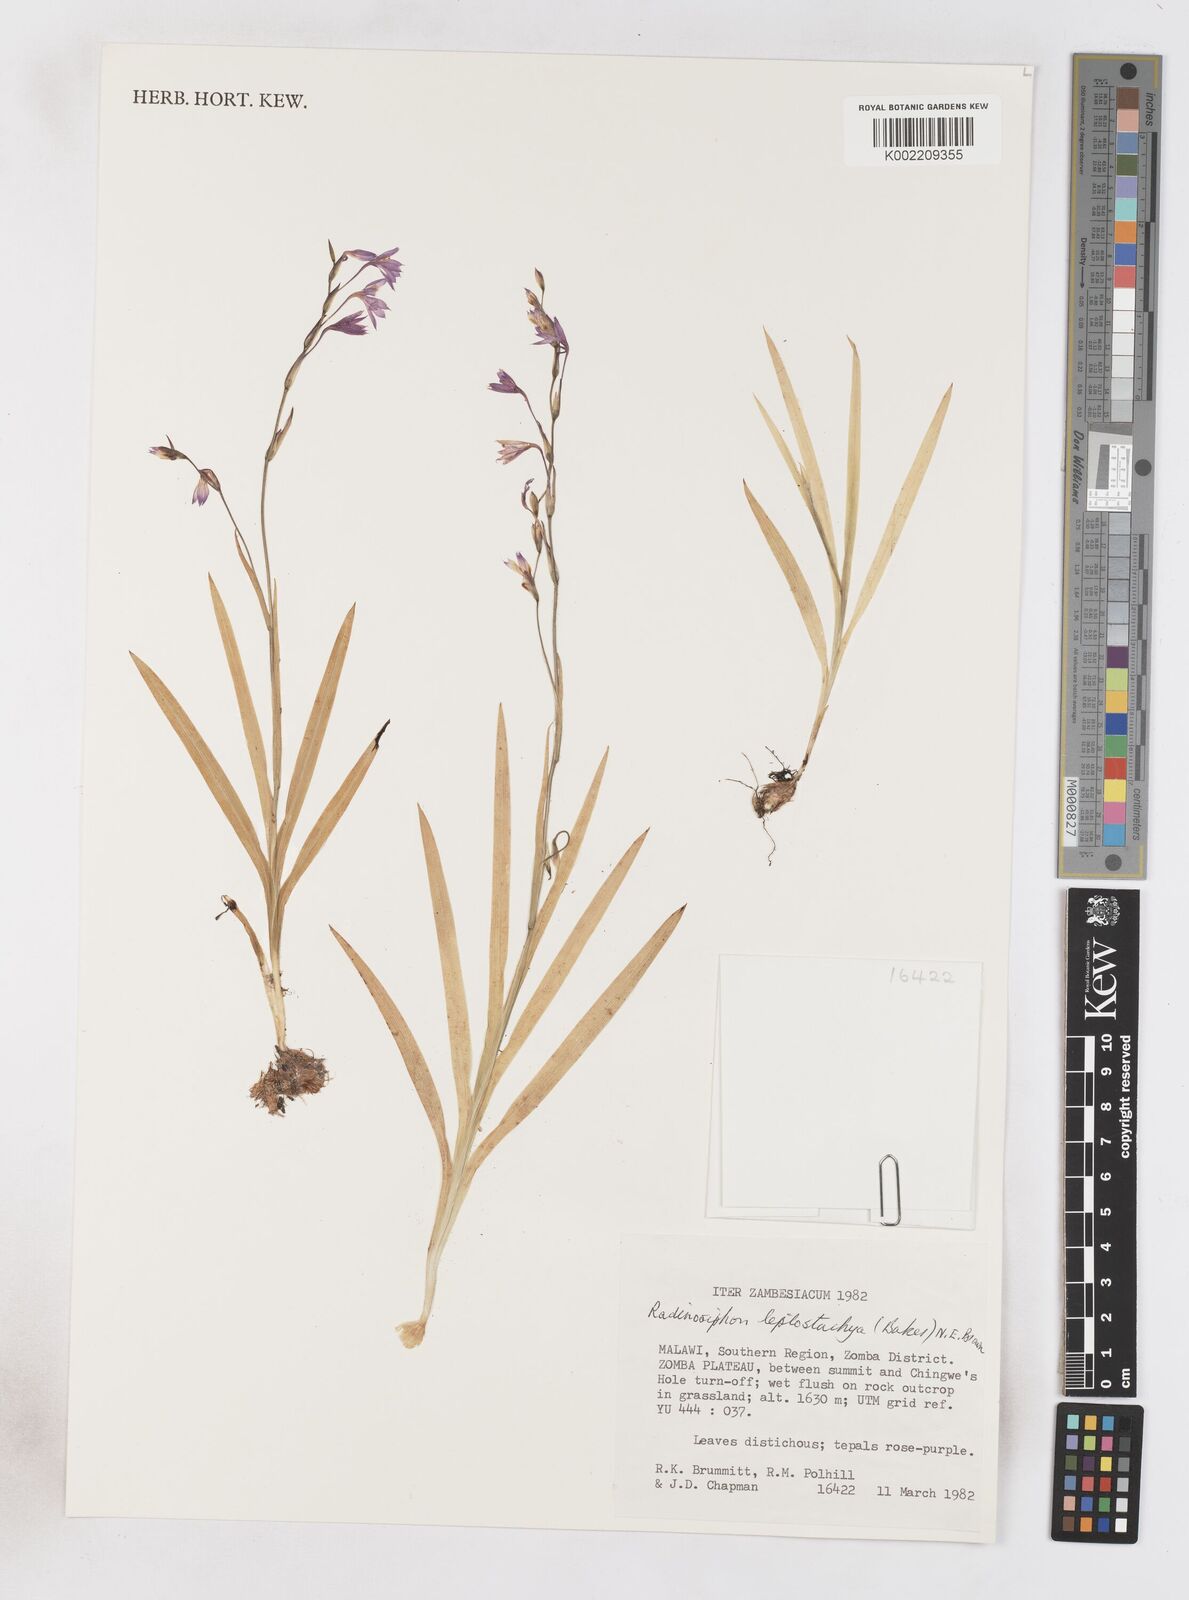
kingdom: Plantae
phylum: Tracheophyta
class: Liliopsida
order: Asparagales
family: Iridaceae
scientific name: Iridaceae
